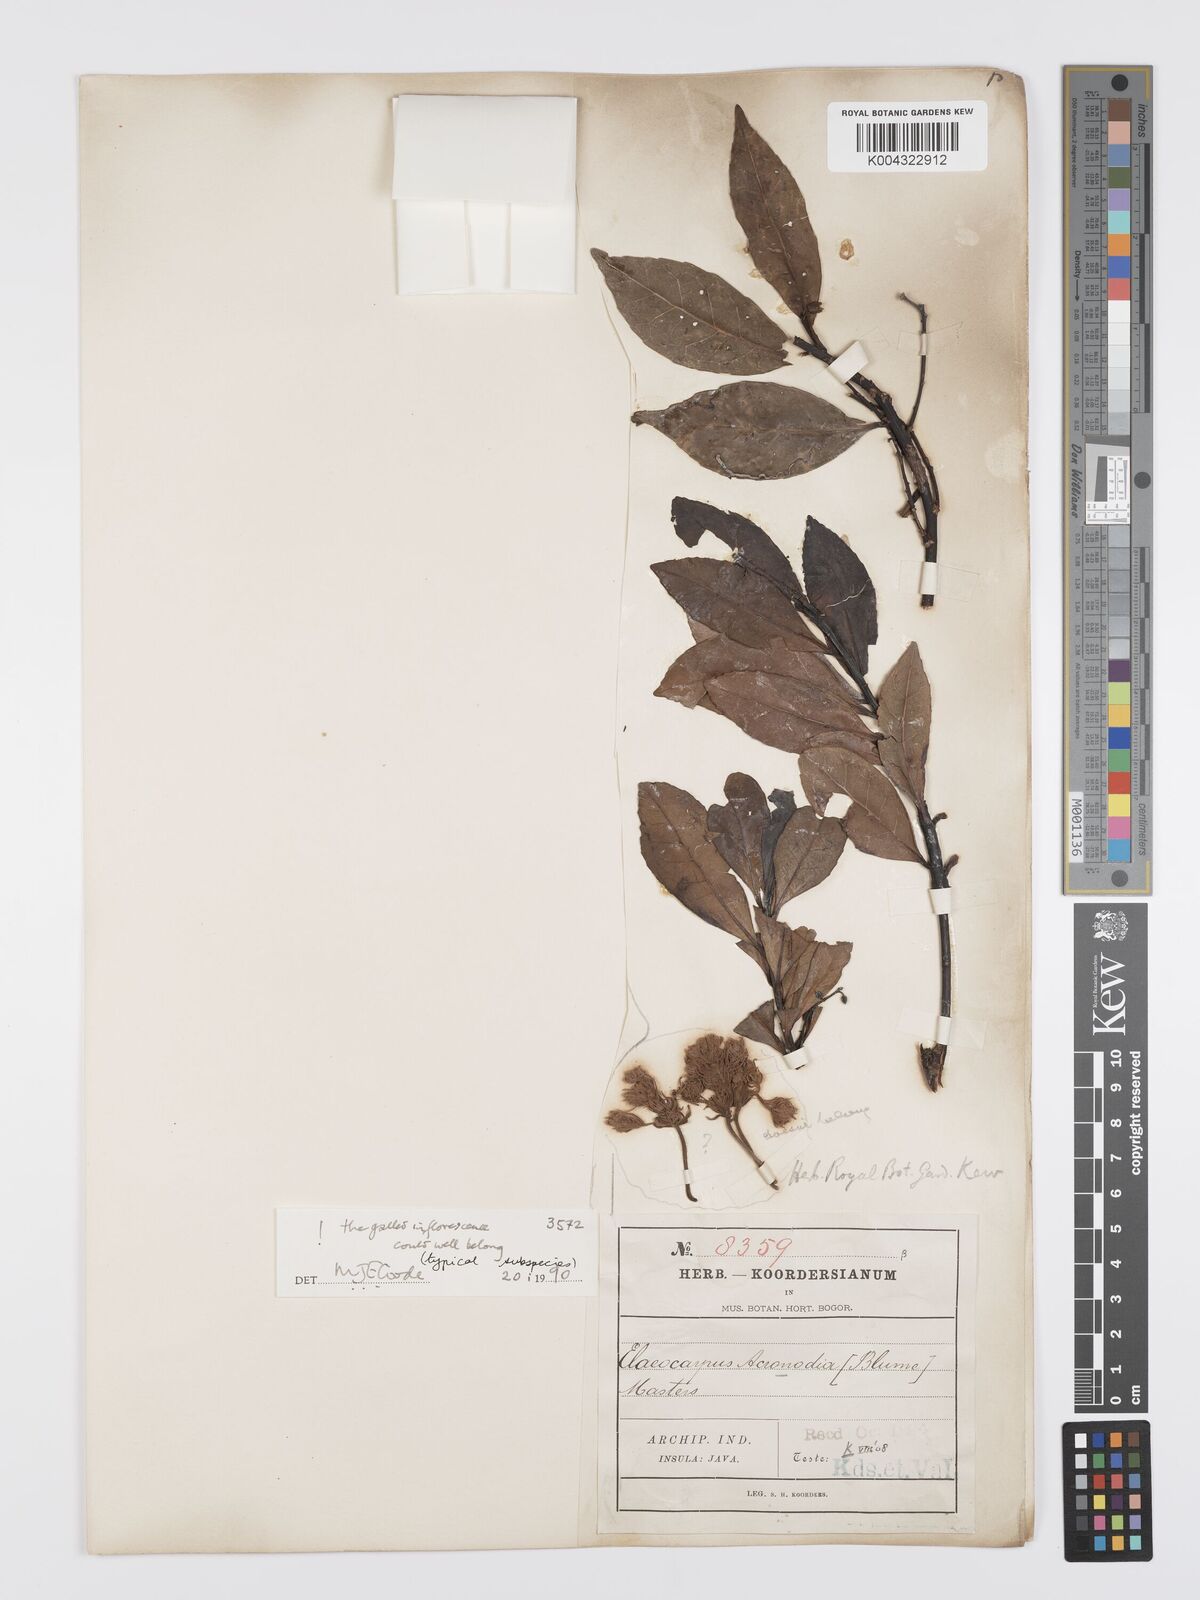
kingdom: Plantae
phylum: Tracheophyta
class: Magnoliopsida
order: Oxalidales
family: Elaeocarpaceae
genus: Elaeocarpus
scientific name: Elaeocarpus acronodia
